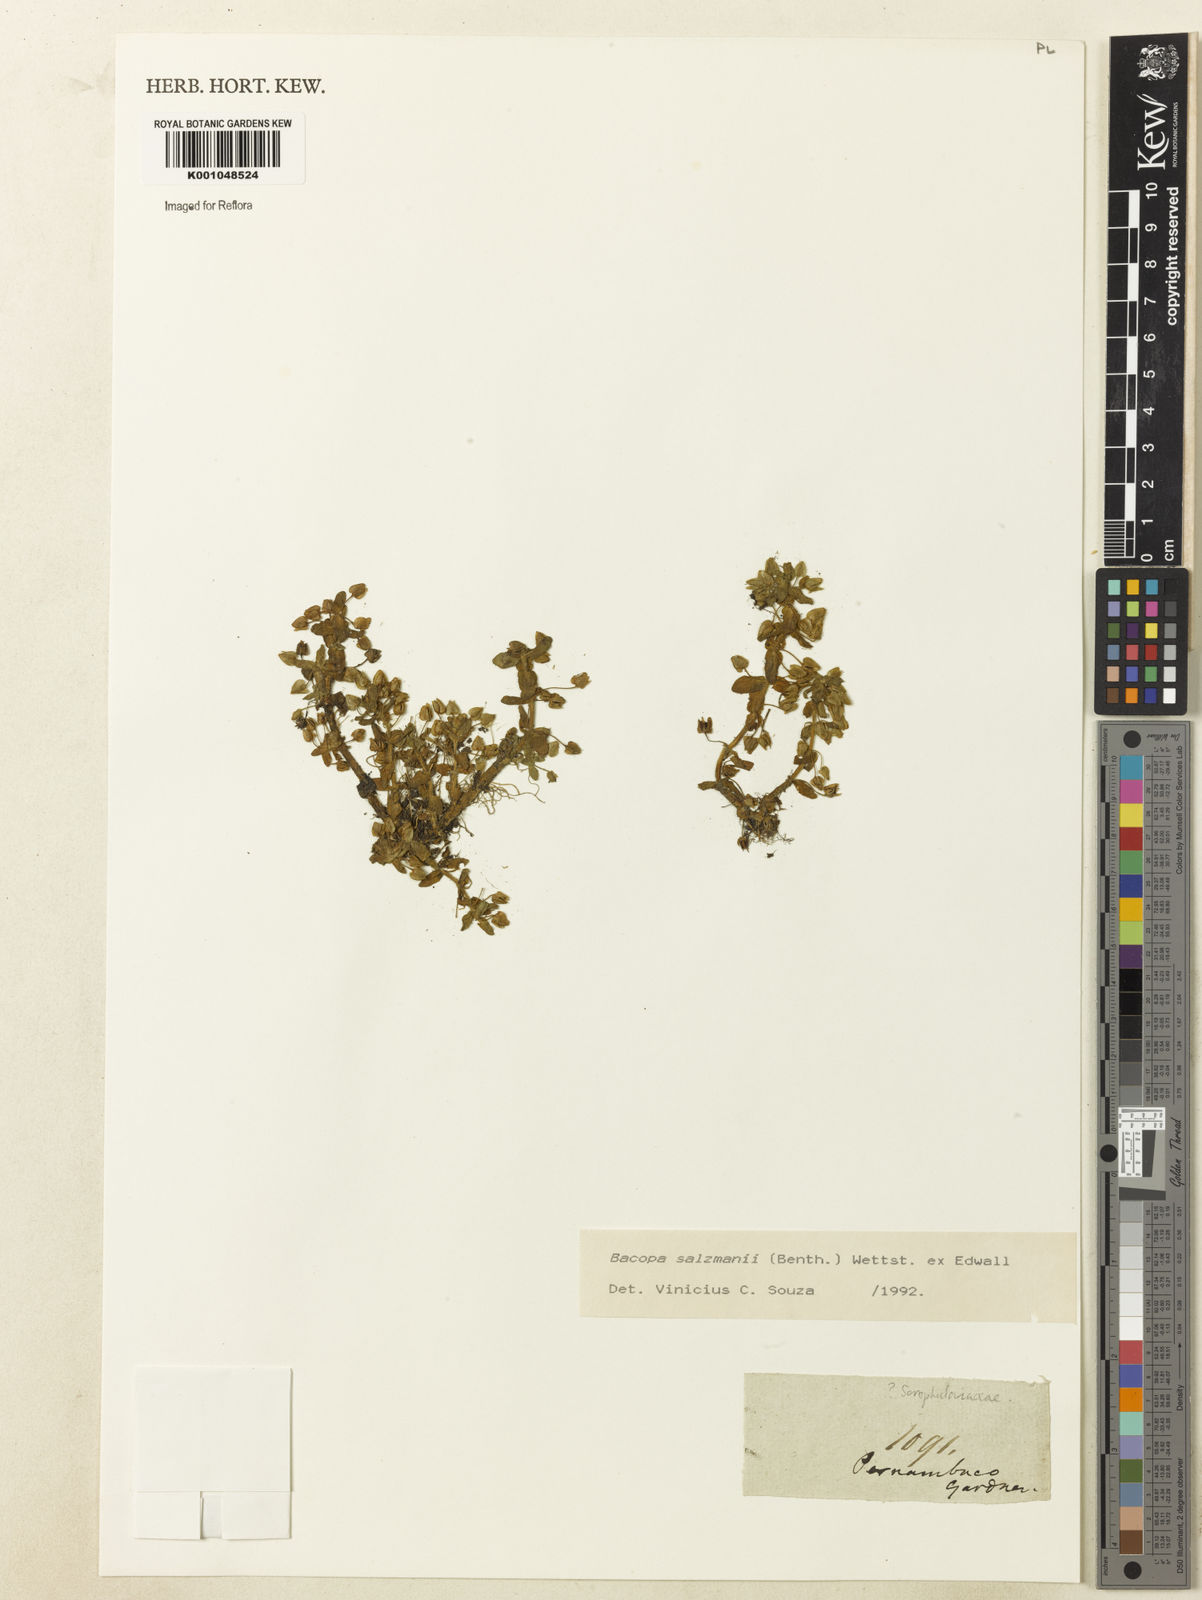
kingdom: Plantae
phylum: Tracheophyta
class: Magnoliopsida
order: Lamiales
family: Plantaginaceae
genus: Bacopa
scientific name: Bacopa salzmannii
